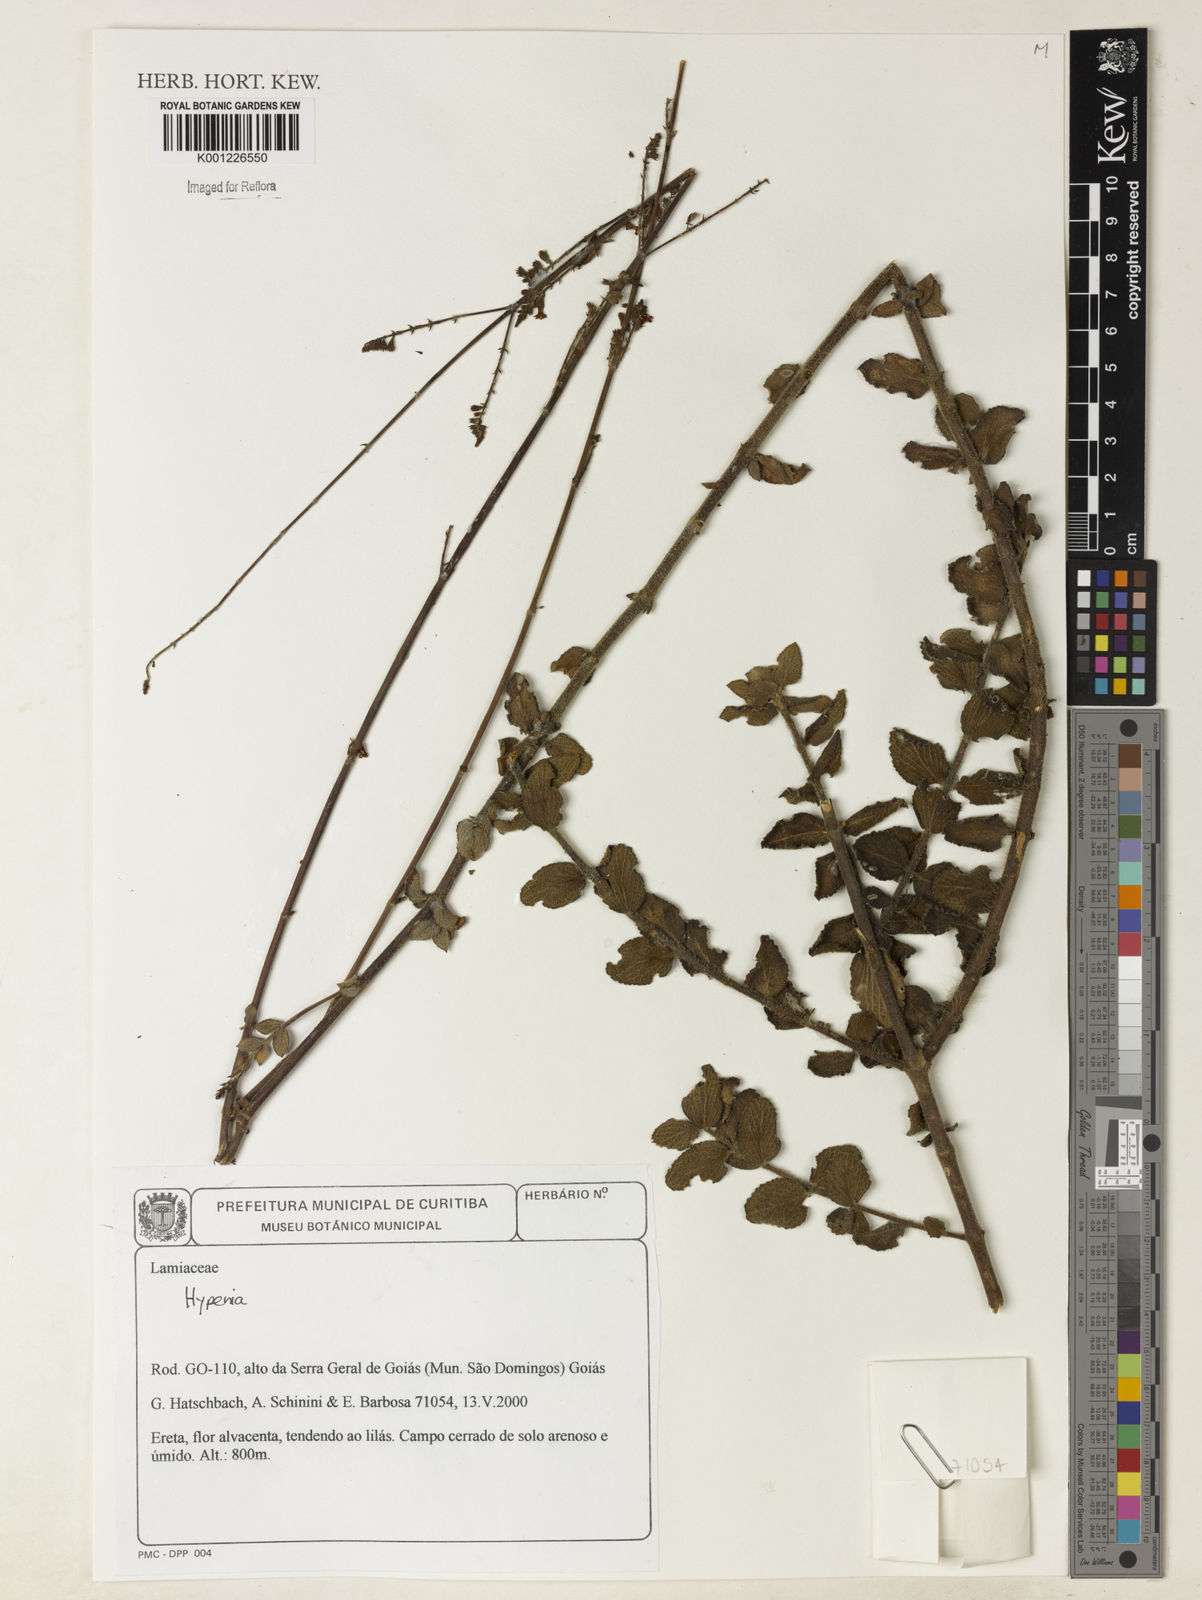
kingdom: Plantae
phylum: Tracheophyta
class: Magnoliopsida
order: Lamiales
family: Lamiaceae
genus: Hypenia
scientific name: Hypenia
